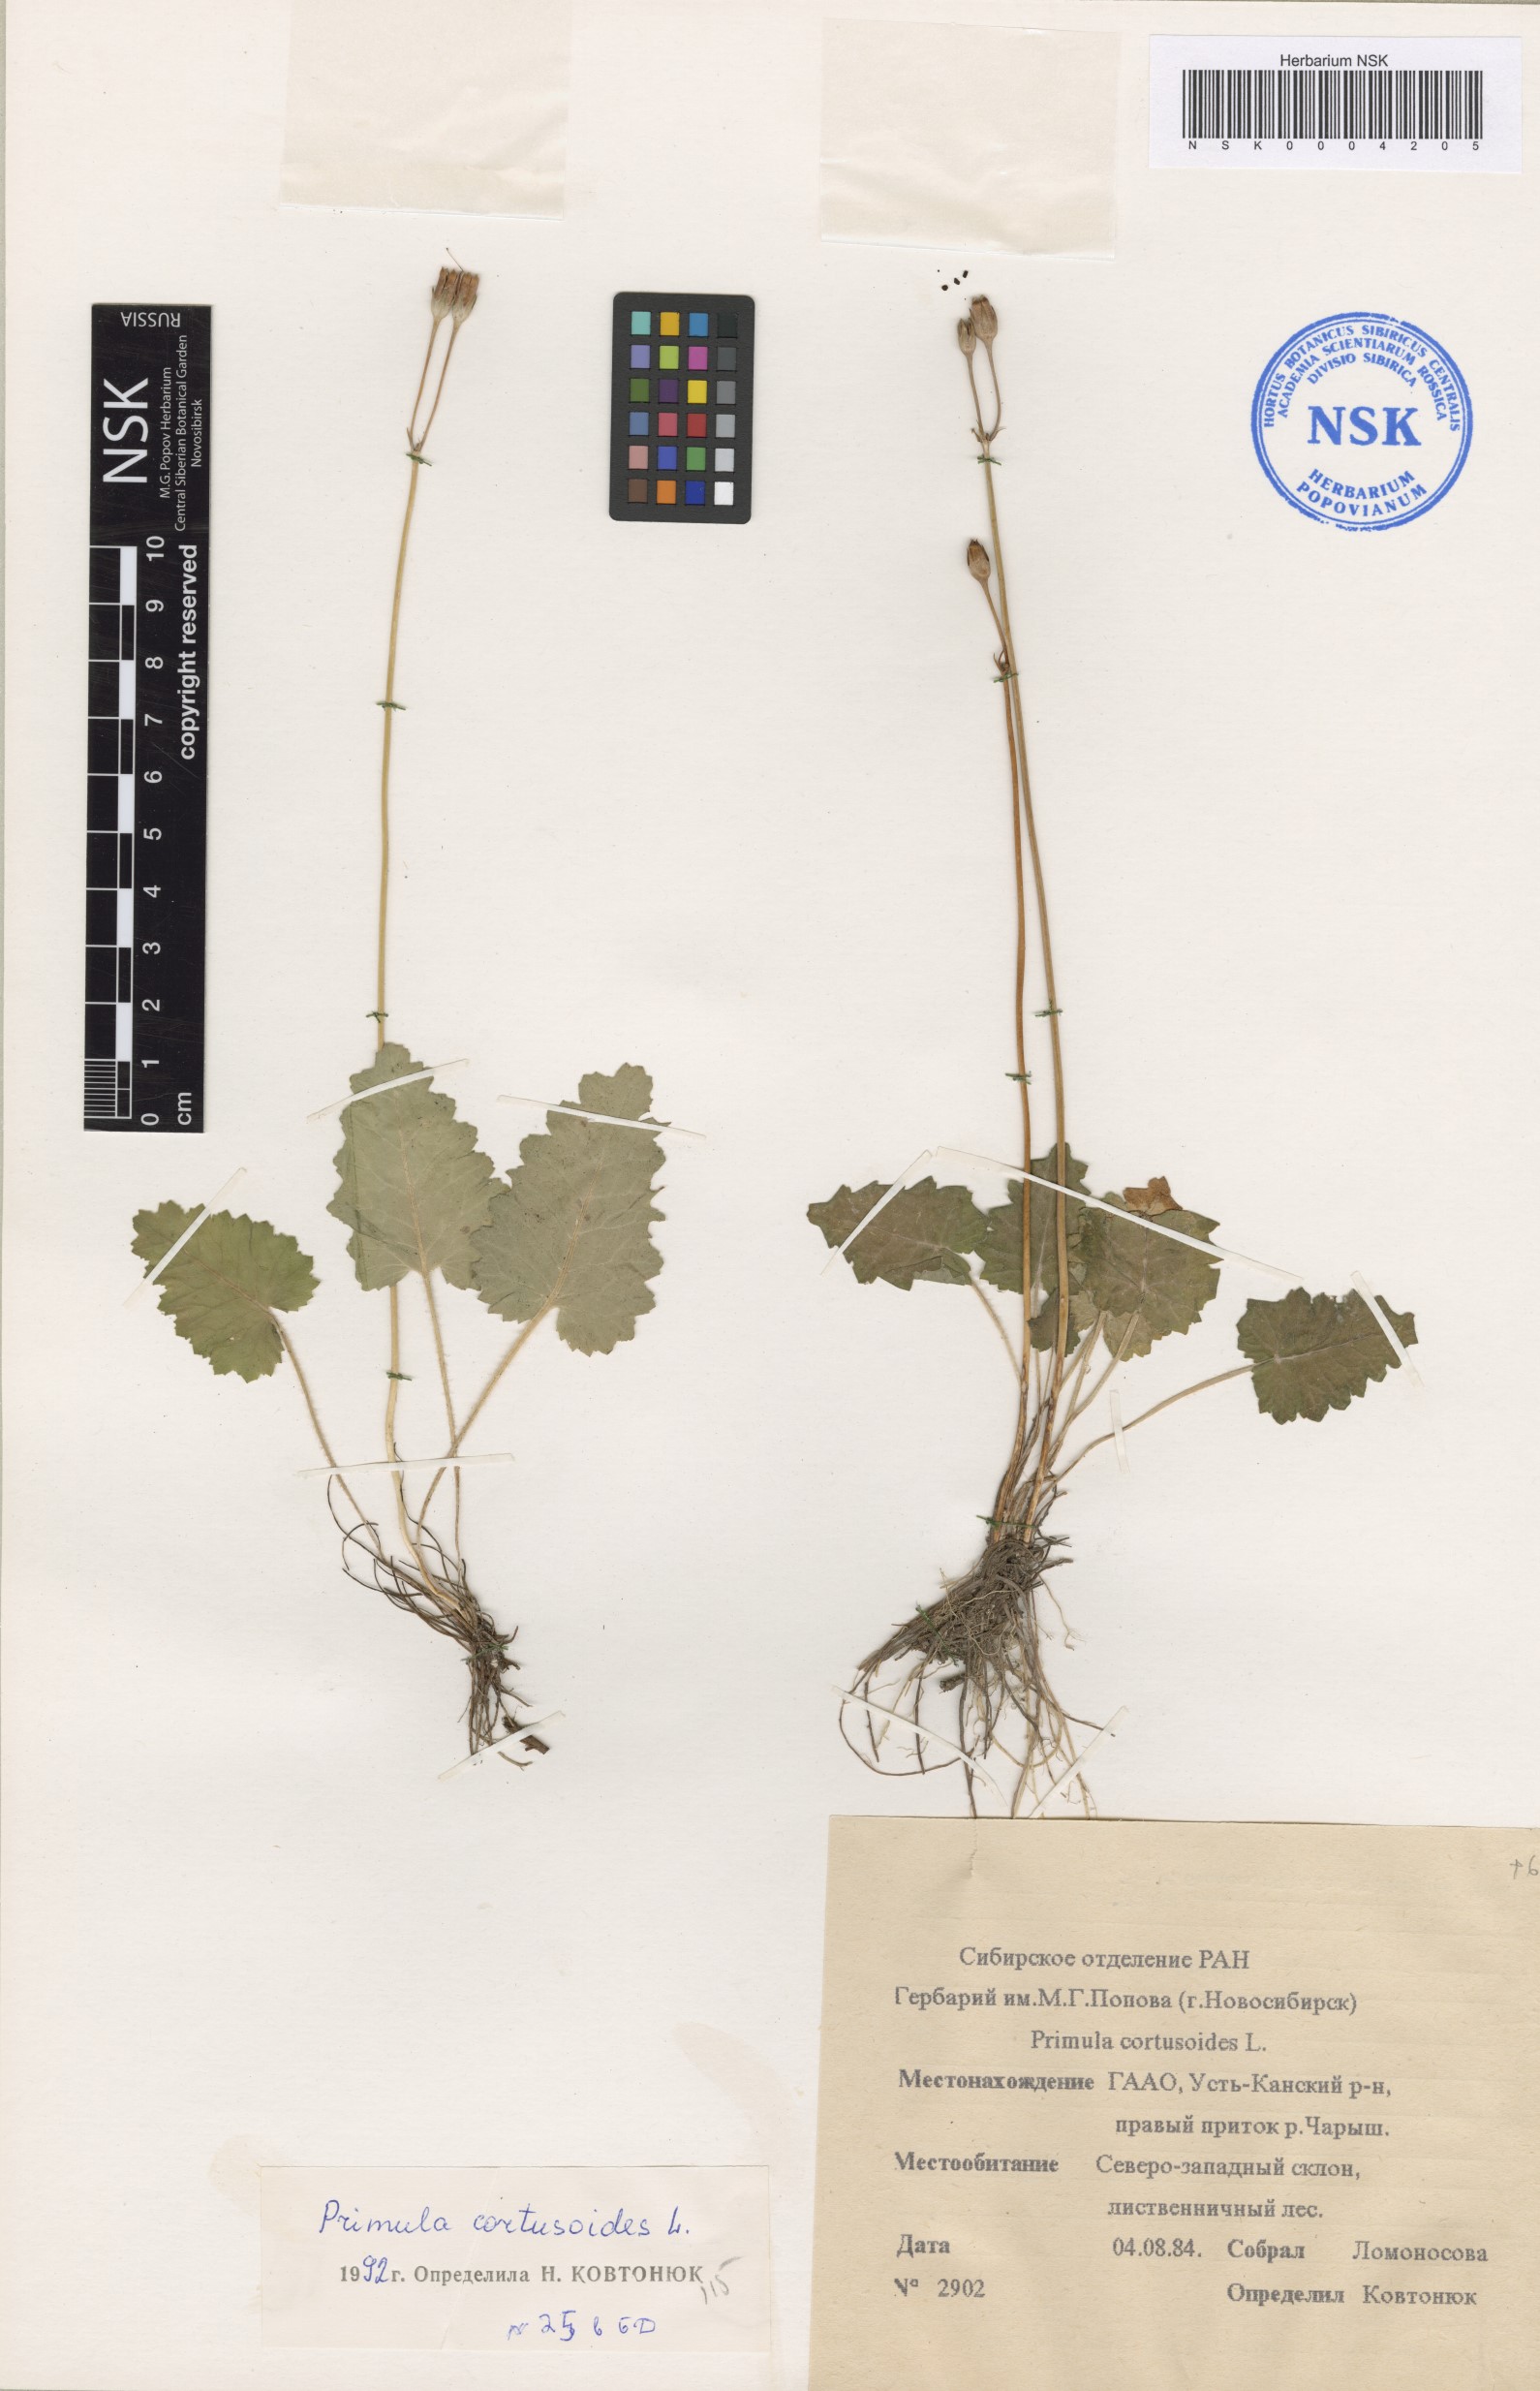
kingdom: Plantae
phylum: Tracheophyta
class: Magnoliopsida
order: Ericales
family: Primulaceae
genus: Primula
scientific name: Primula cortusoides
